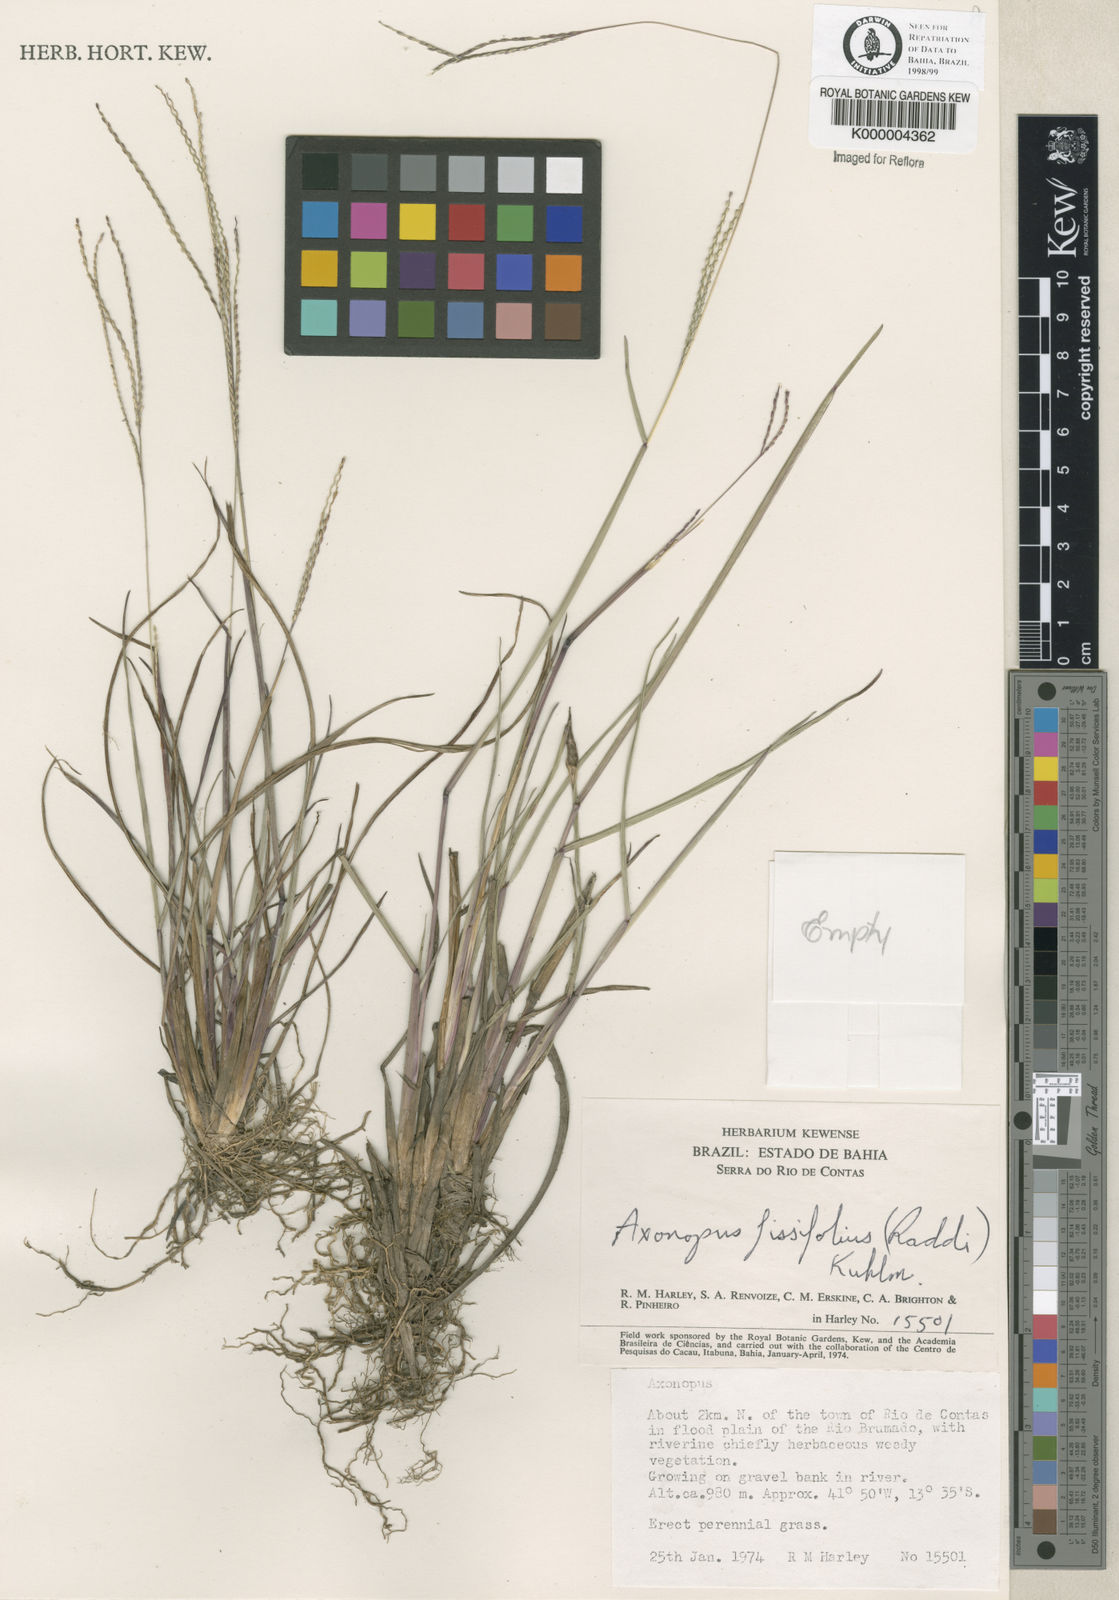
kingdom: Plantae
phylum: Tracheophyta
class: Liliopsida
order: Poales
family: Poaceae
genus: Axonopus
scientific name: Axonopus fissifolius
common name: Common carpetgrass
